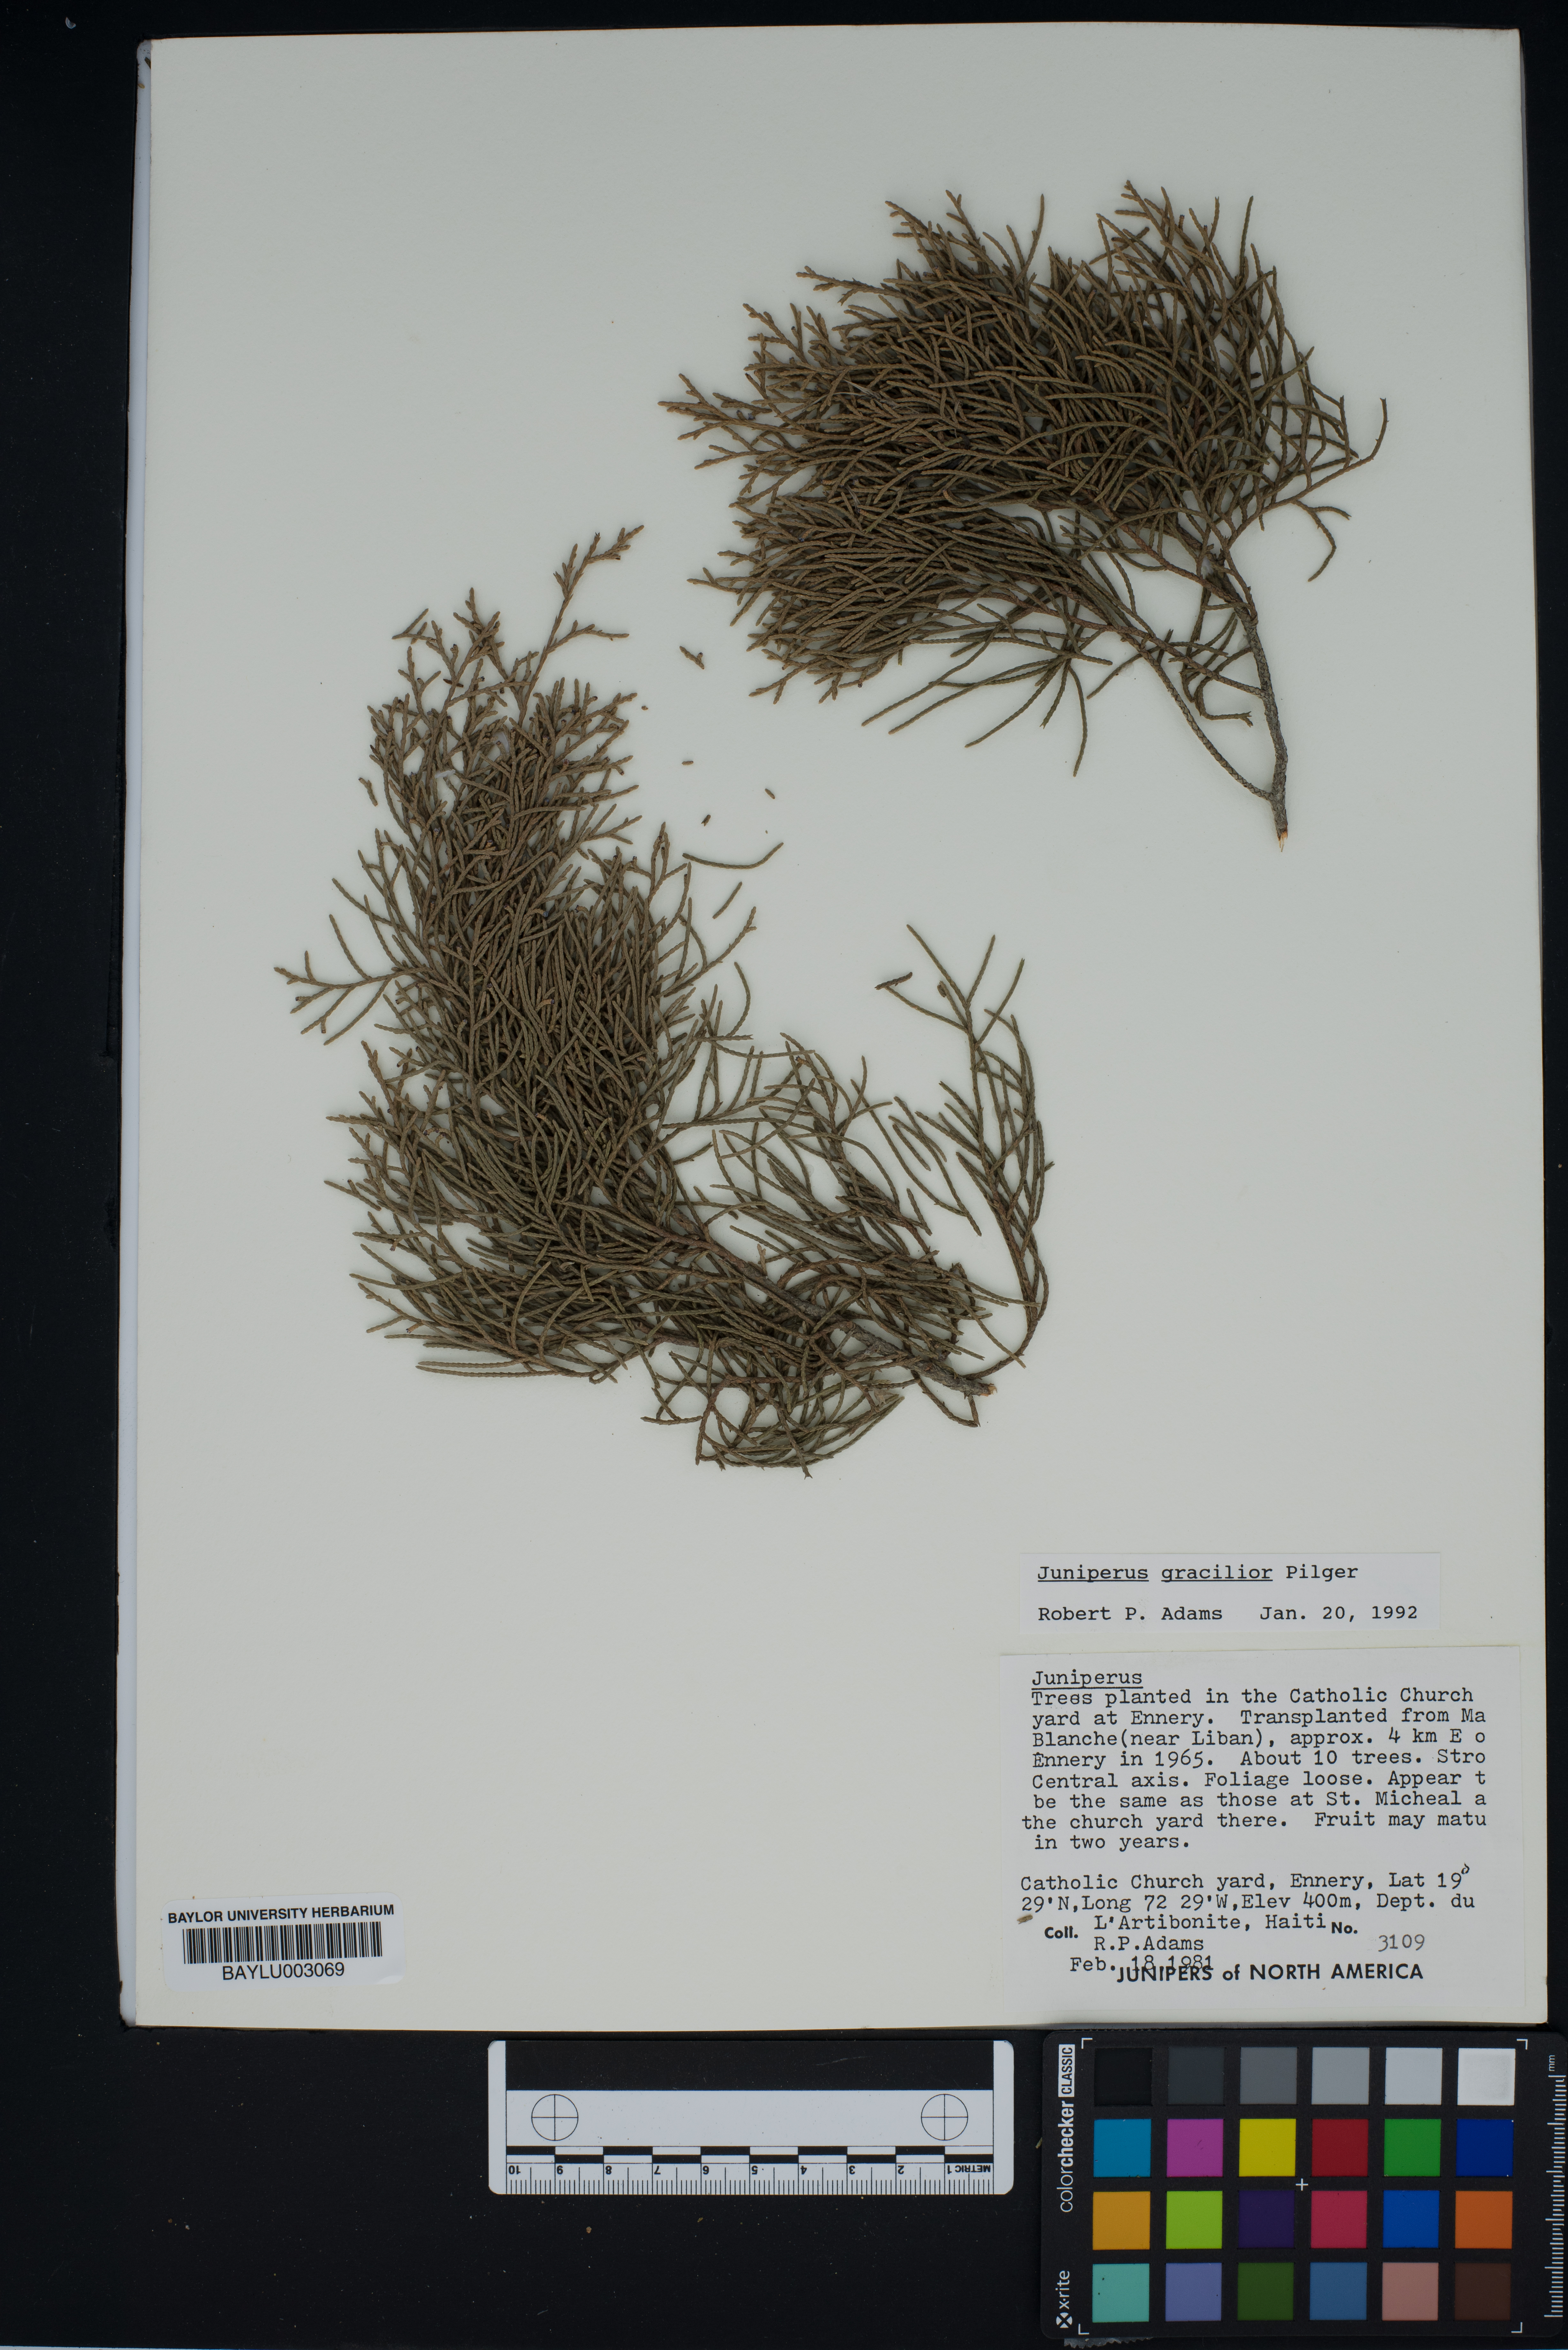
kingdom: Plantae
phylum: Tracheophyta
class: Pinopsida
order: Pinales
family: Cupressaceae
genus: Juniperus
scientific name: Juniperus gracilior
